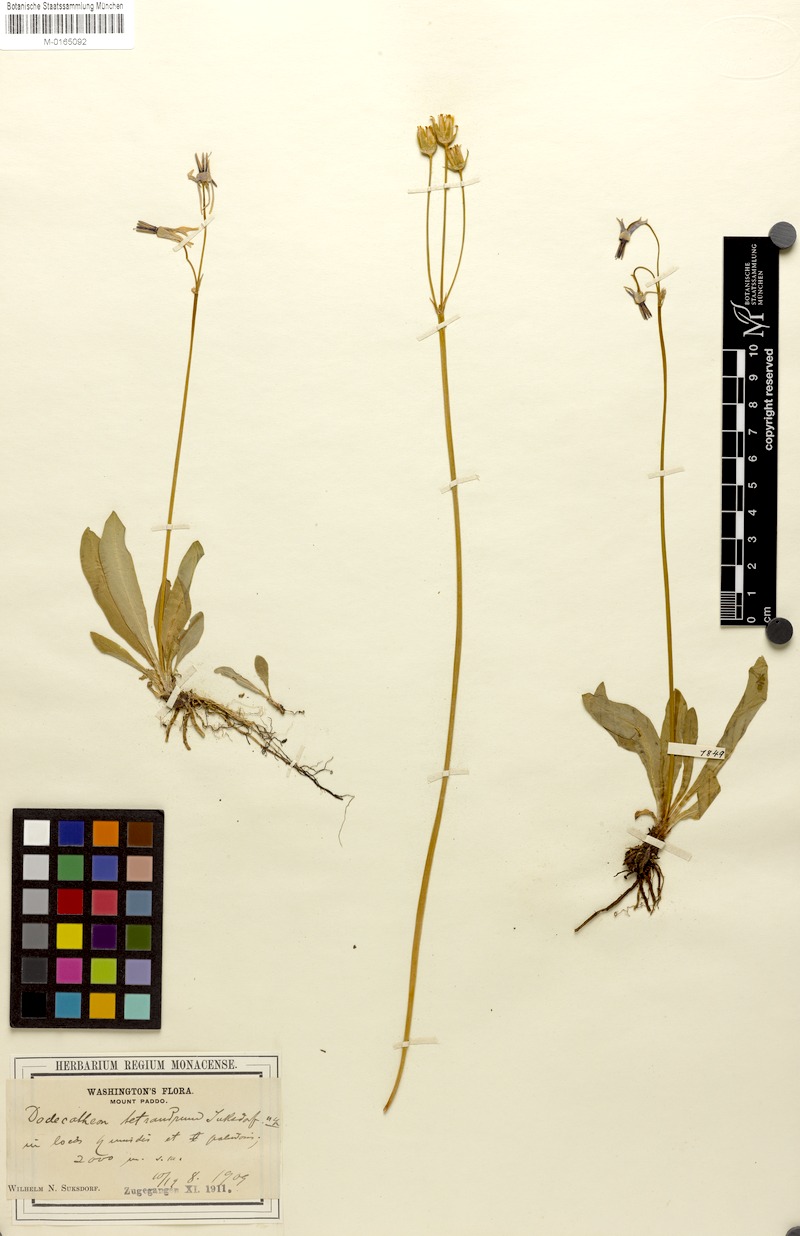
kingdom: Plantae
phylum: Tracheophyta
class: Magnoliopsida
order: Ericales
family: Primulaceae
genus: Dodecatheon
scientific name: Dodecatheon jeffreyanum
